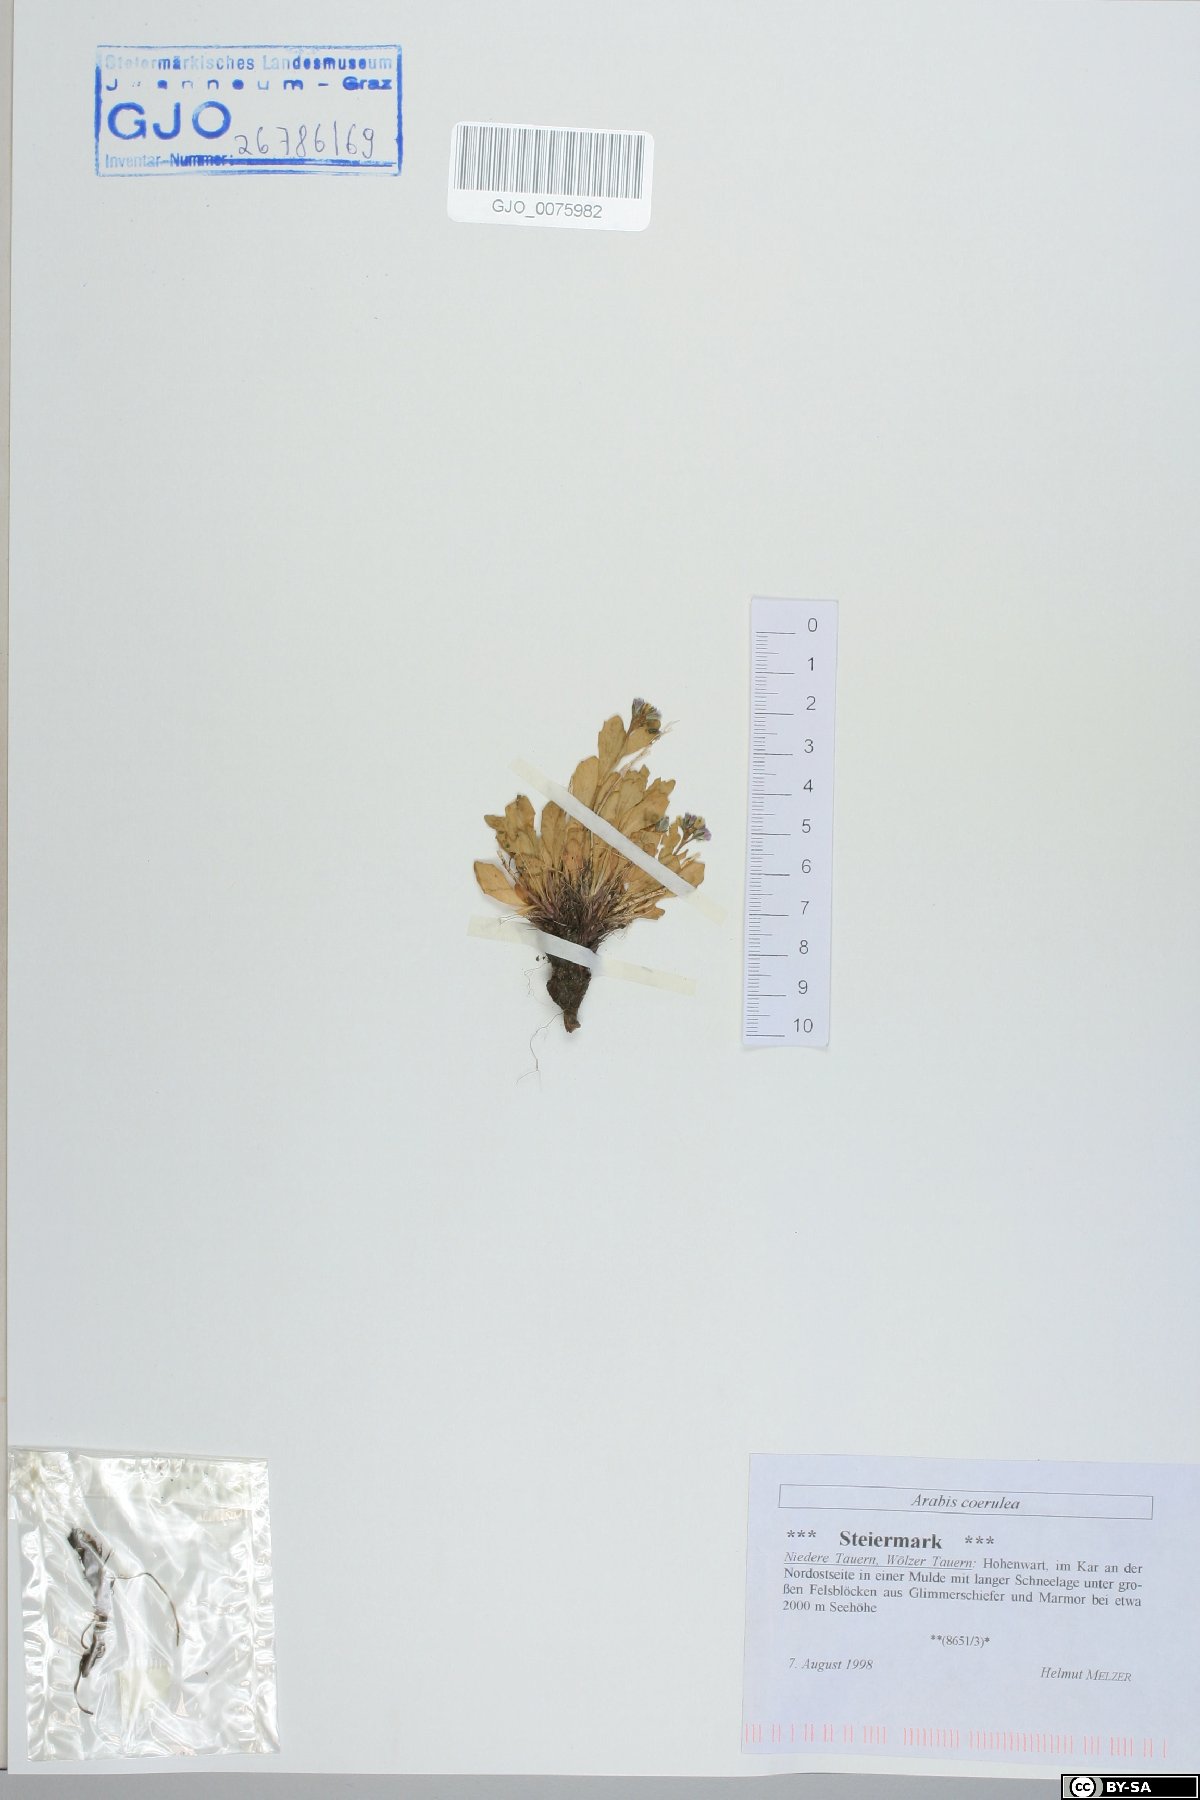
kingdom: Plantae
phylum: Tracheophyta
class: Magnoliopsida
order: Brassicales
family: Brassicaceae
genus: Arabis
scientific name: Arabis caerulea
